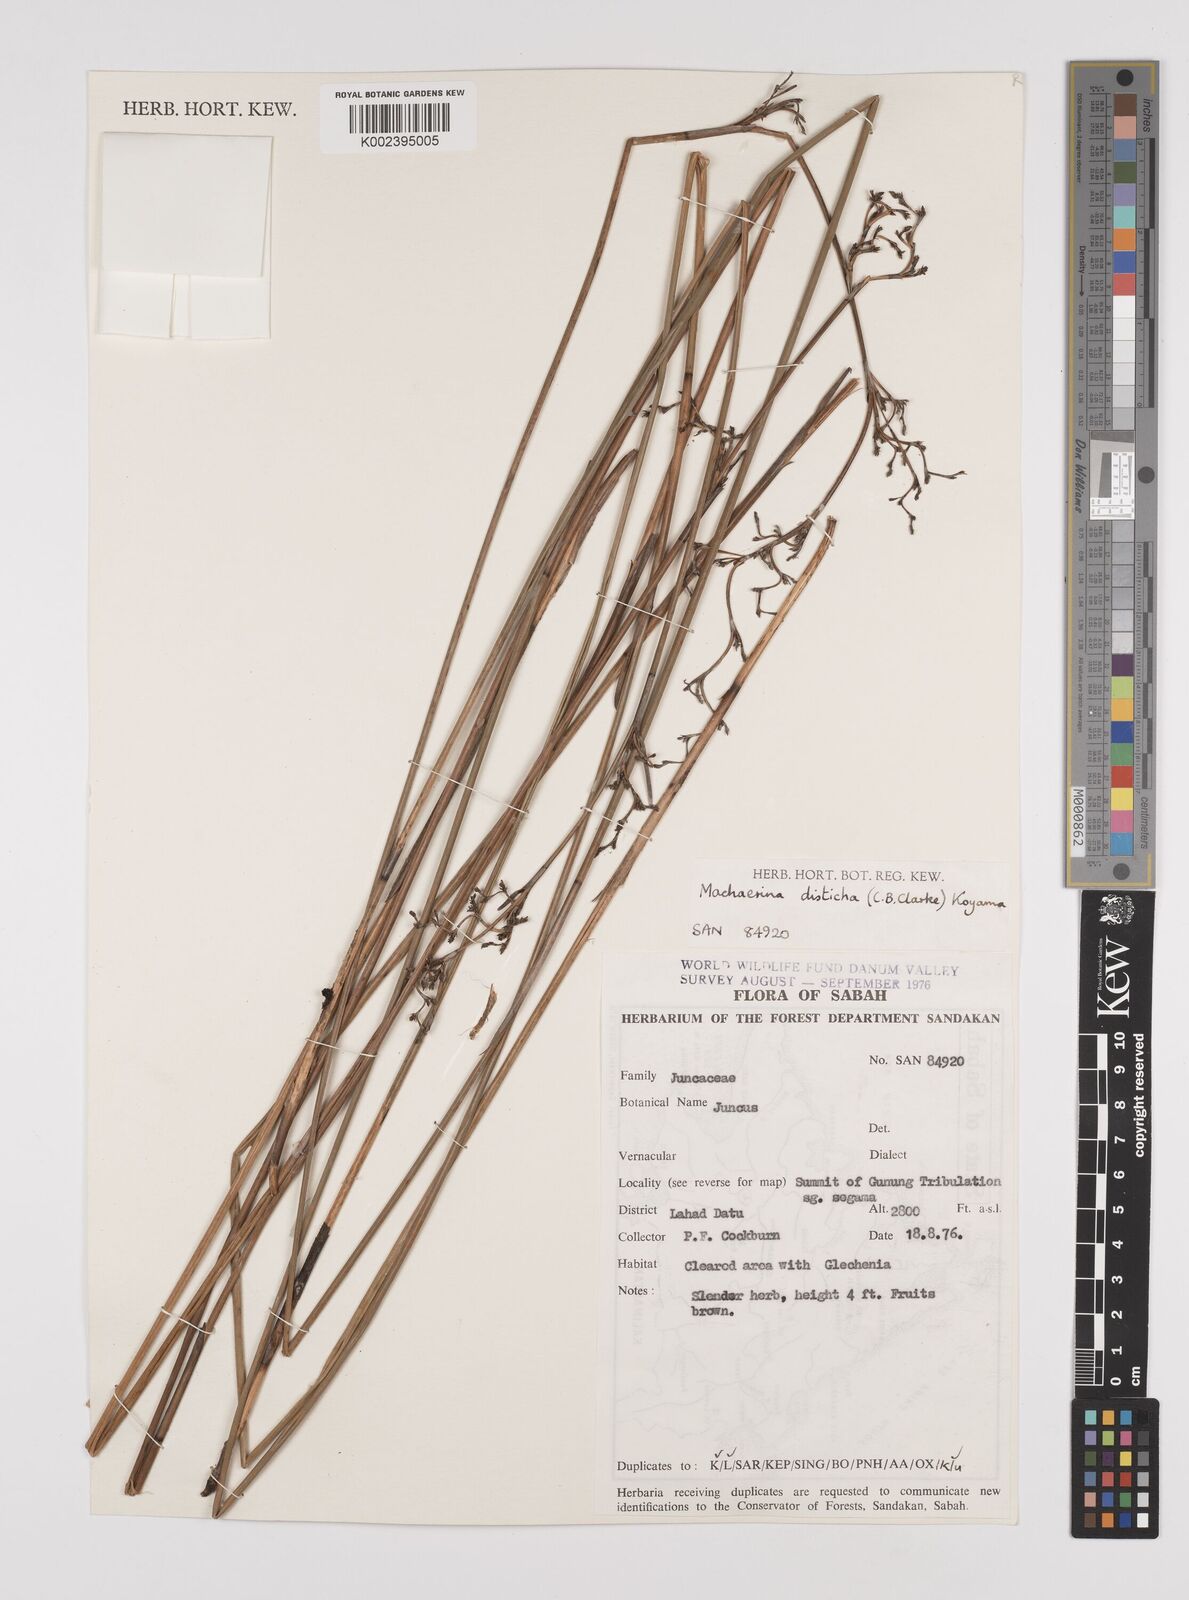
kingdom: Plantae
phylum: Tracheophyta
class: Liliopsida
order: Poales
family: Cyperaceae
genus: Machaerina
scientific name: Machaerina disticha
